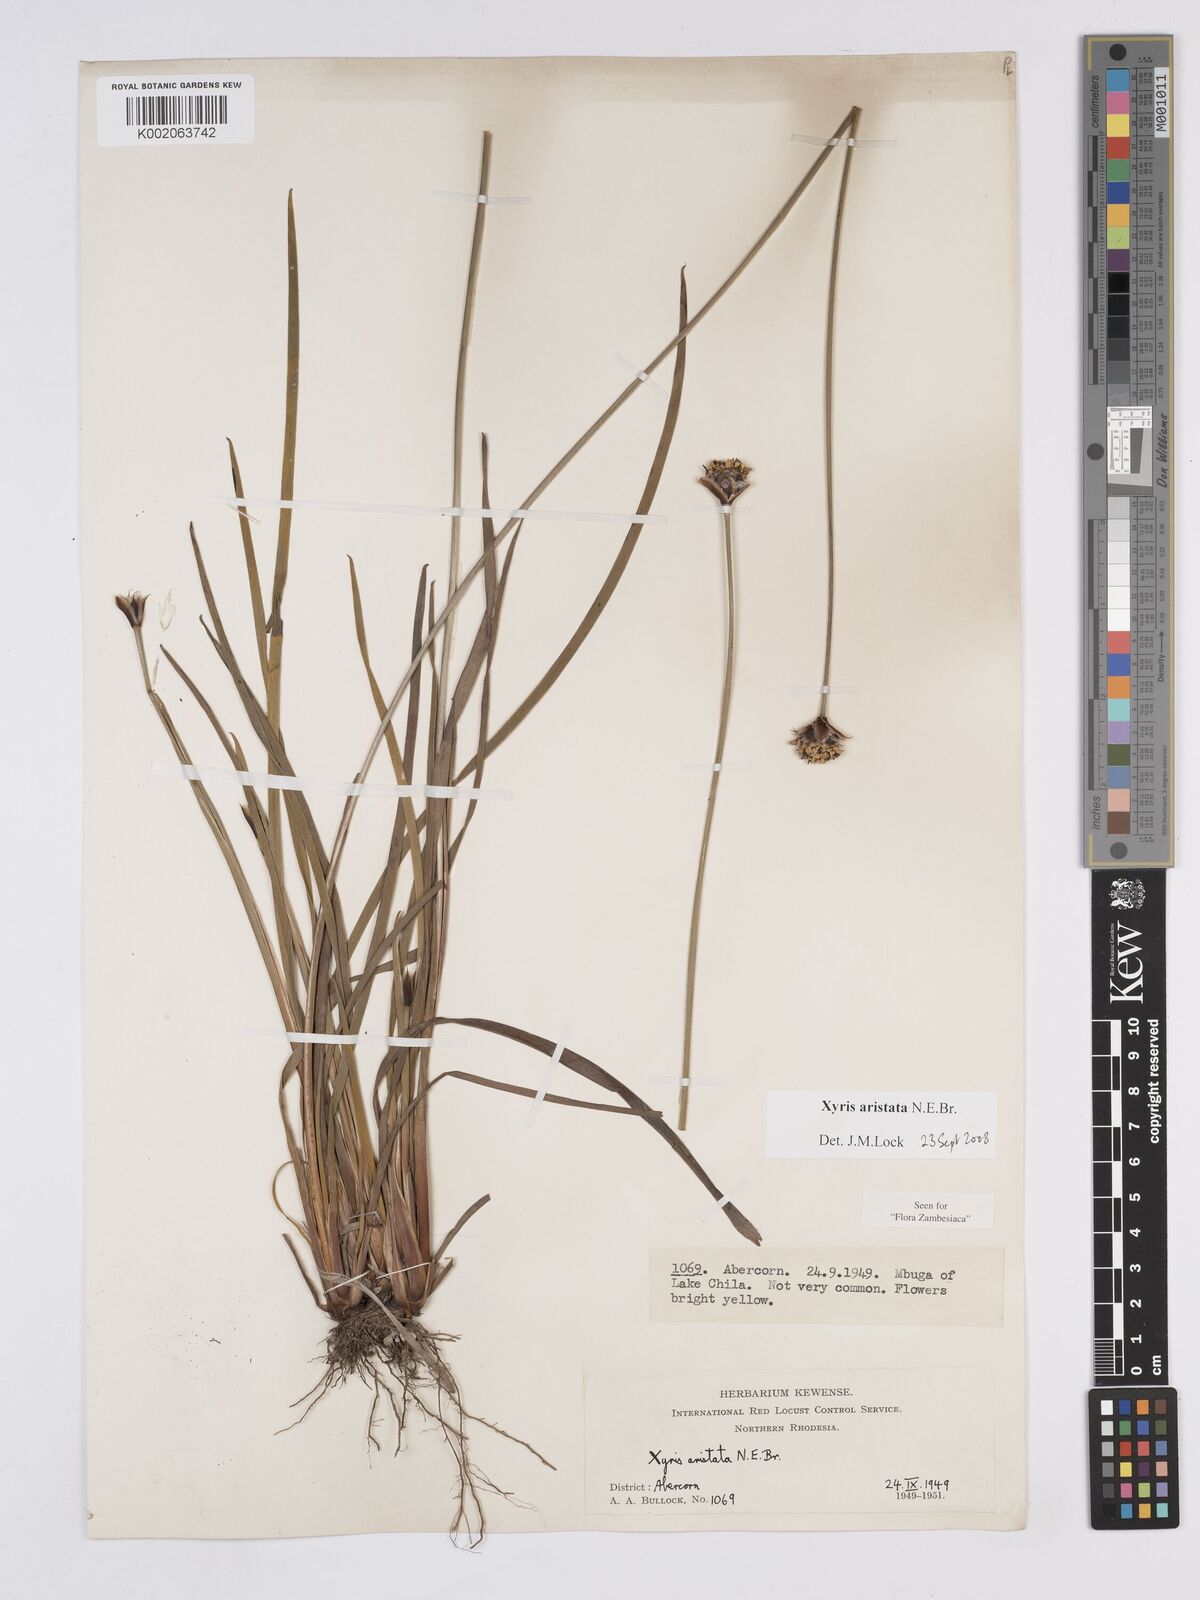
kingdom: Plantae
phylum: Tracheophyta
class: Liliopsida
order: Poales
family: Xyridaceae
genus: Xyris
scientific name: Xyris aristata
